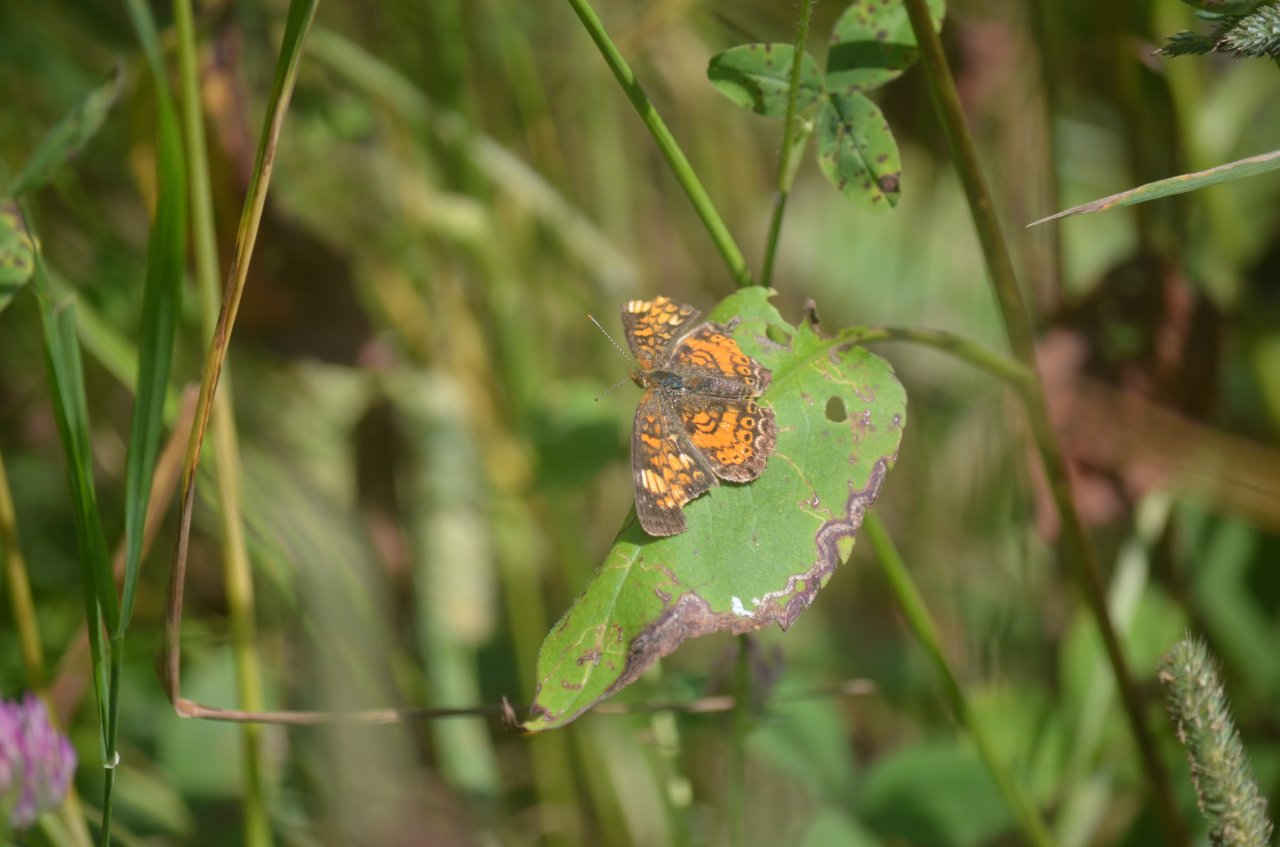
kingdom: Animalia
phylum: Arthropoda
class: Insecta
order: Lepidoptera
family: Nymphalidae
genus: Phyciodes
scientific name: Phyciodes tharos
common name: Northern Crescent
